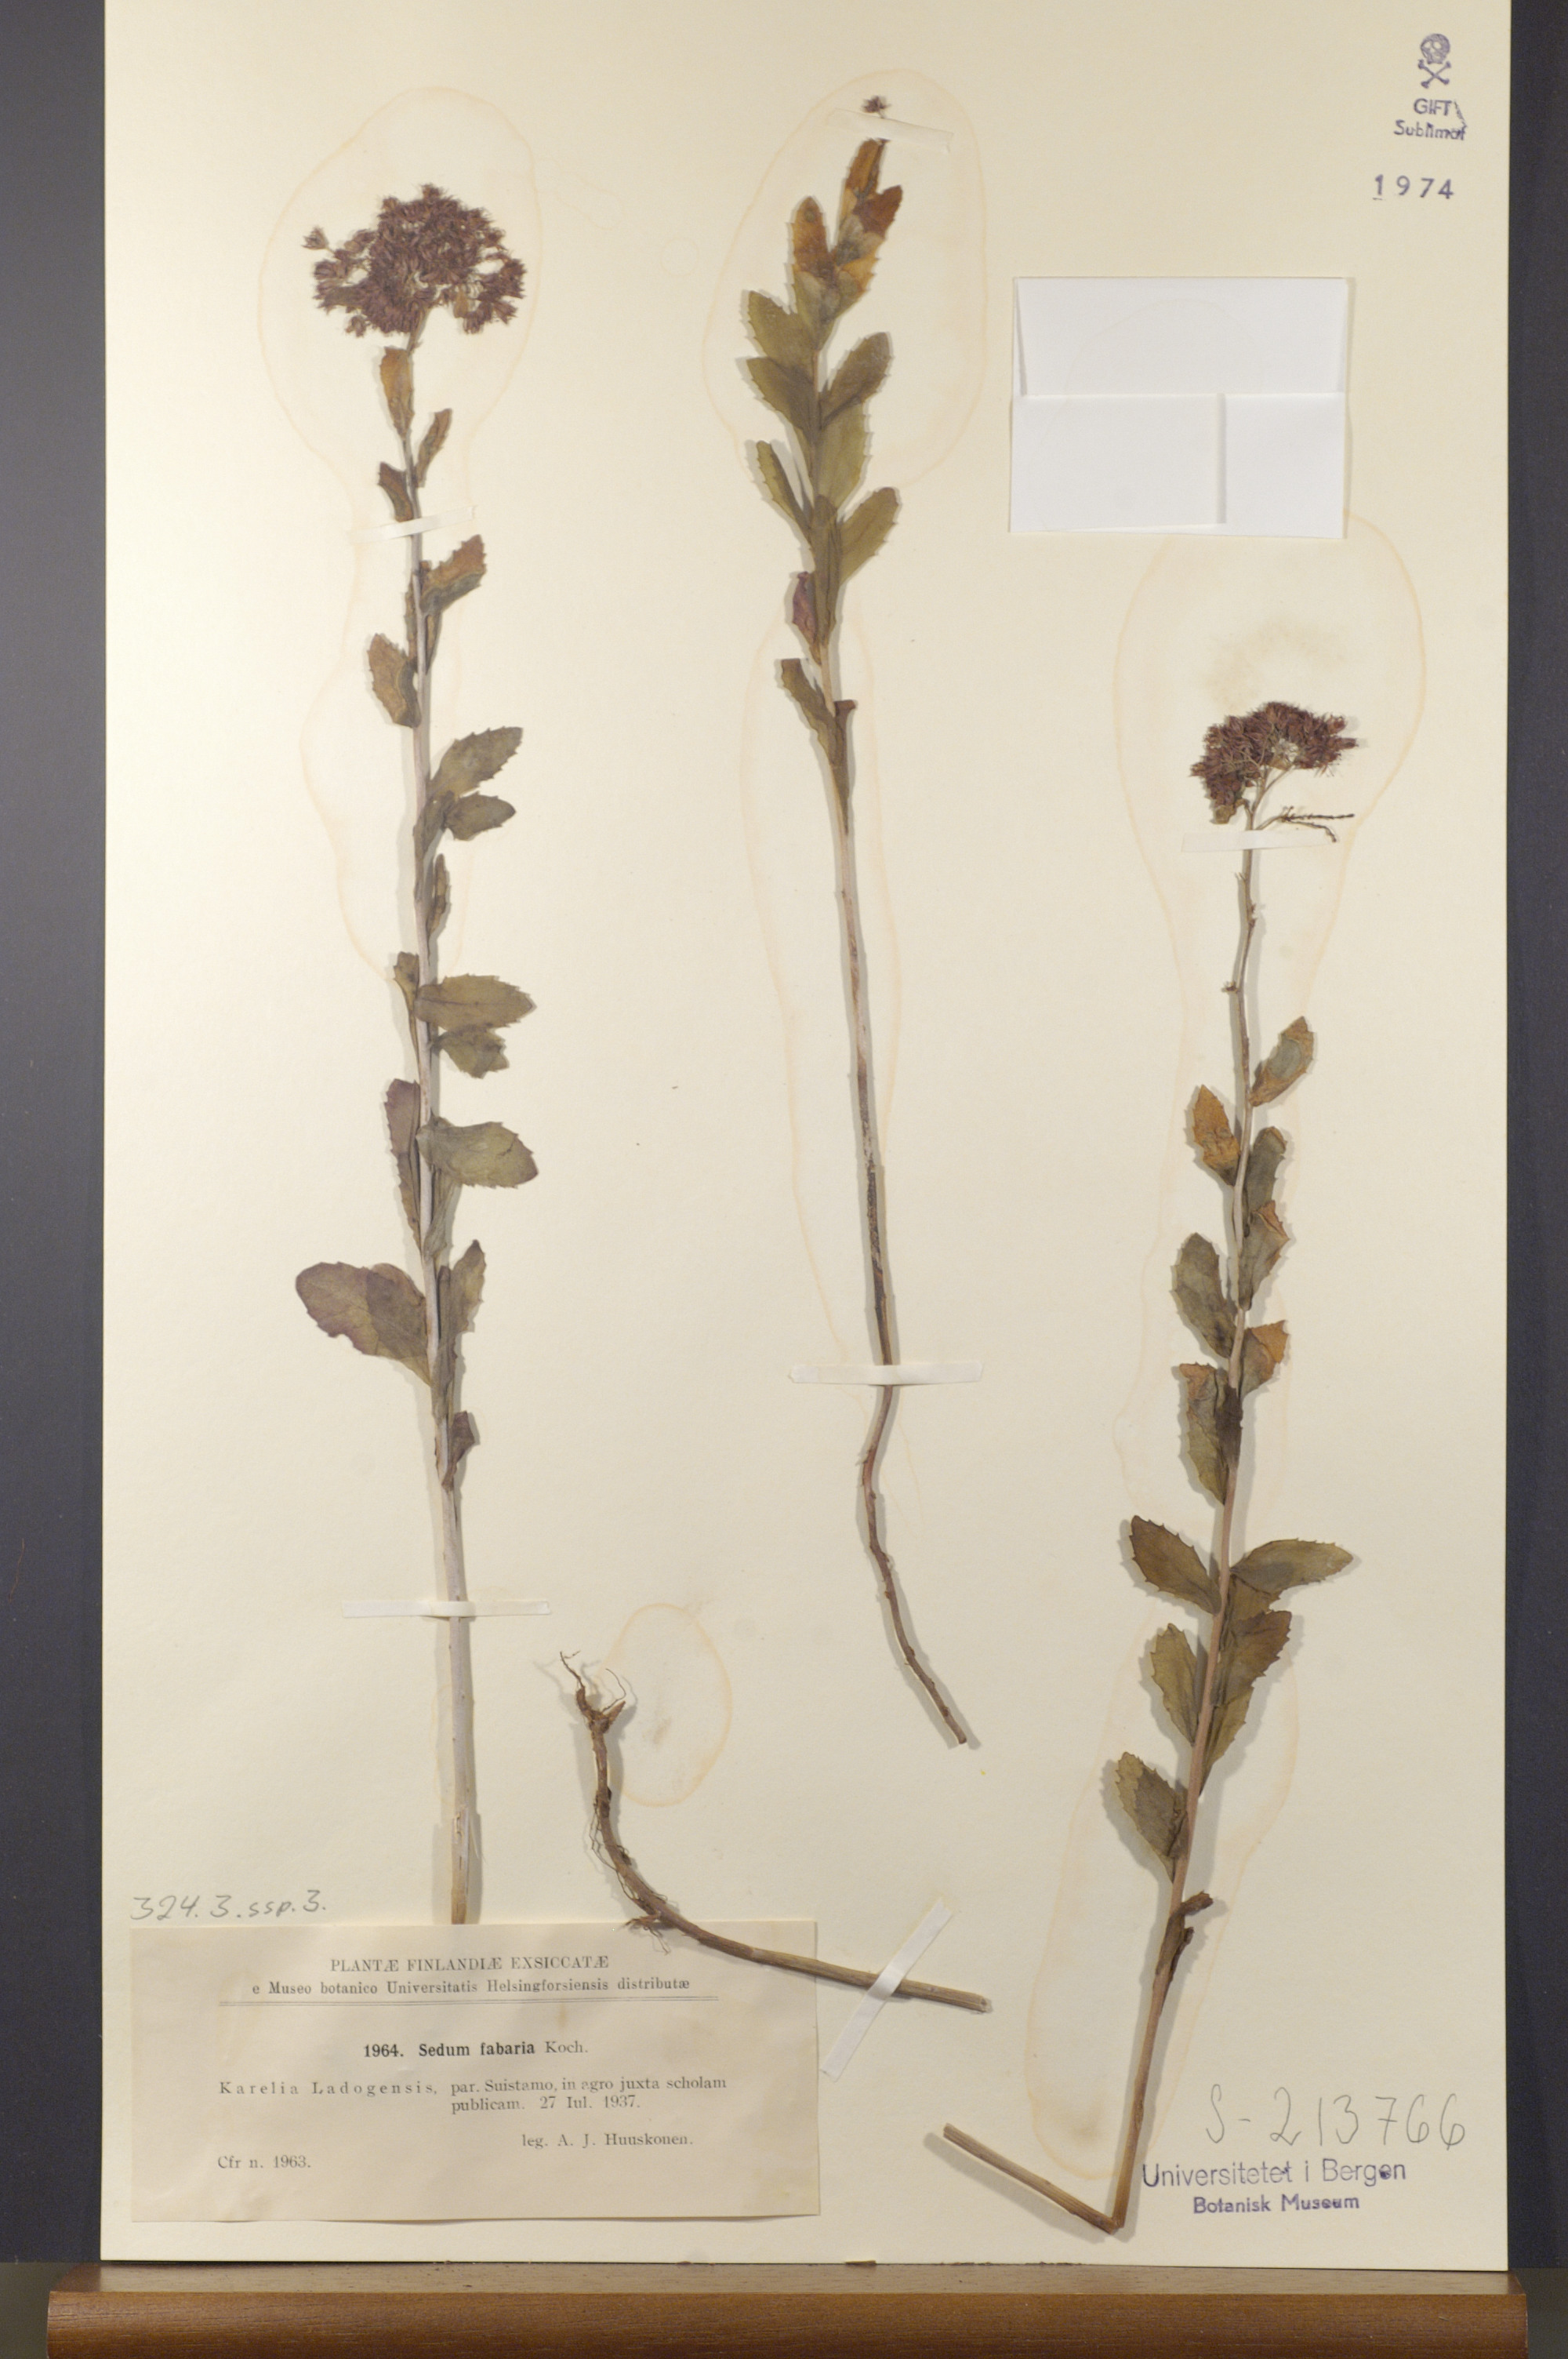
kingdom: Plantae
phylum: Tracheophyta
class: Magnoliopsida
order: Saxifragales
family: Crassulaceae
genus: Hylotelephium
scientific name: Hylotelephium telephium
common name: Live-forever
